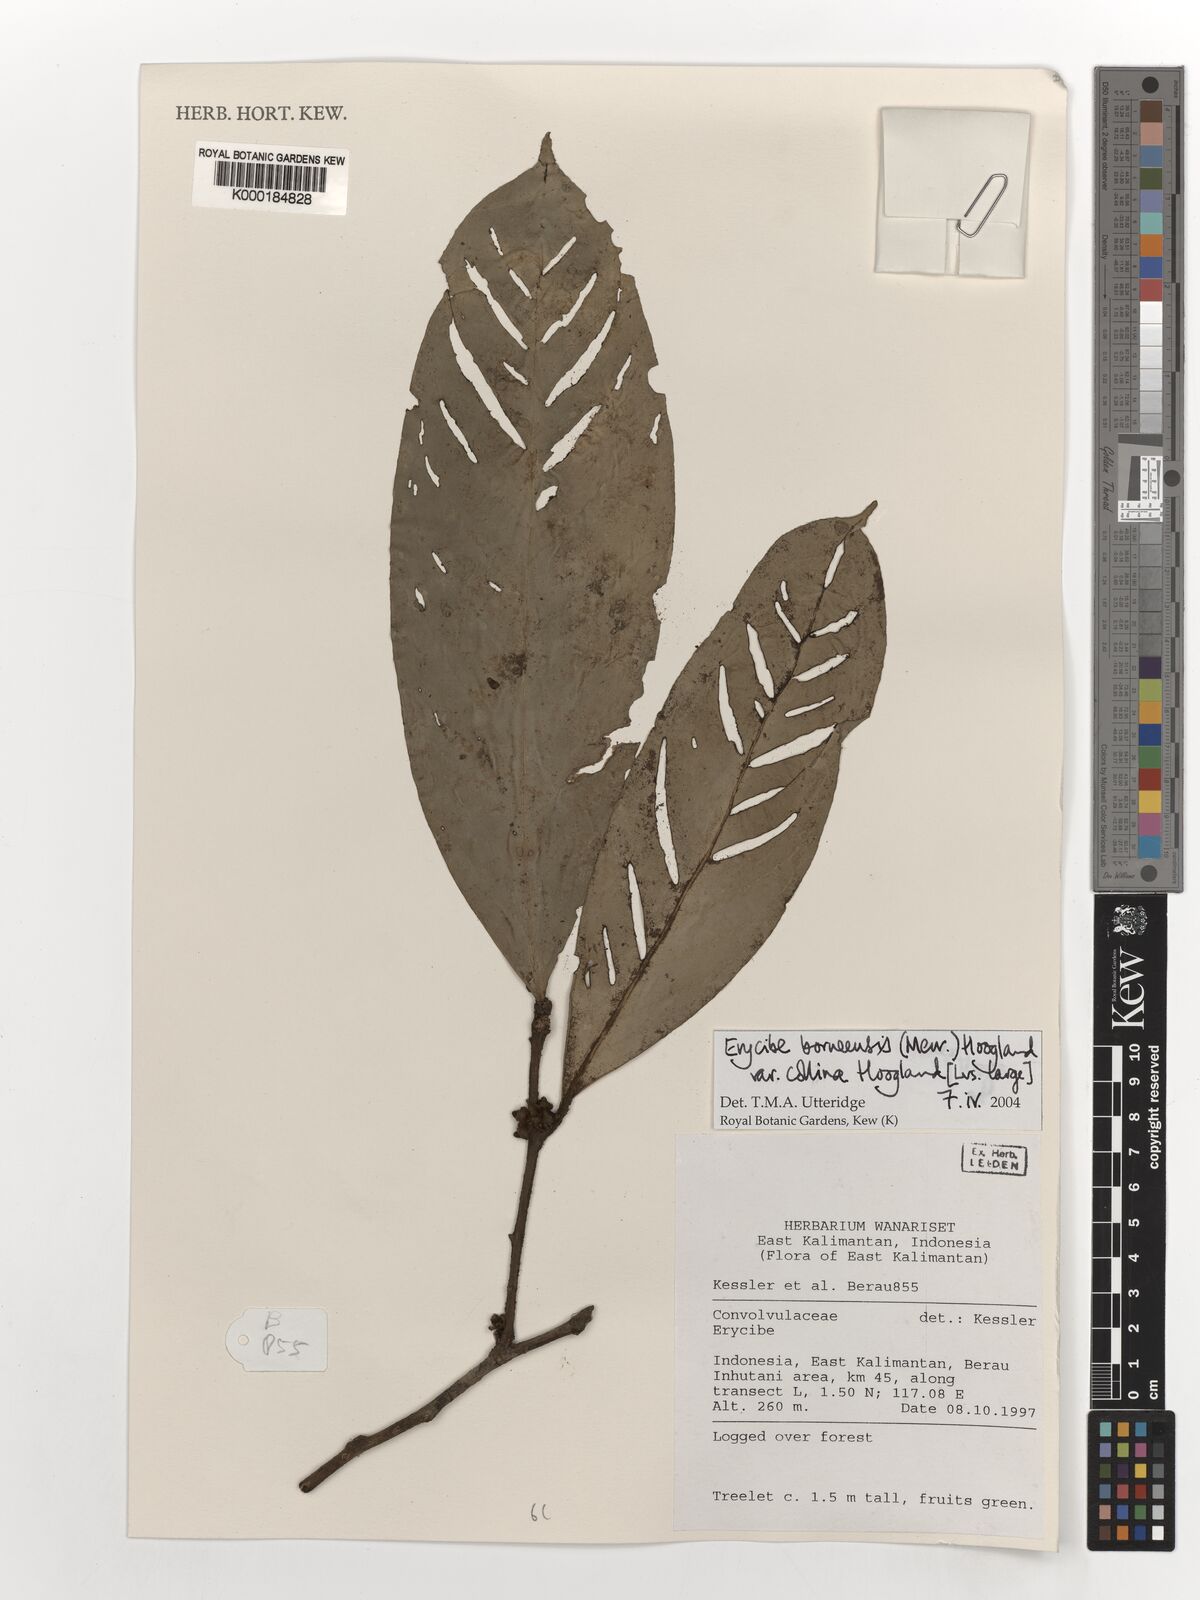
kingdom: Plantae
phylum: Tracheophyta
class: Magnoliopsida
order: Solanales
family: Convolvulaceae
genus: Erycibe
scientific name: Erycibe
